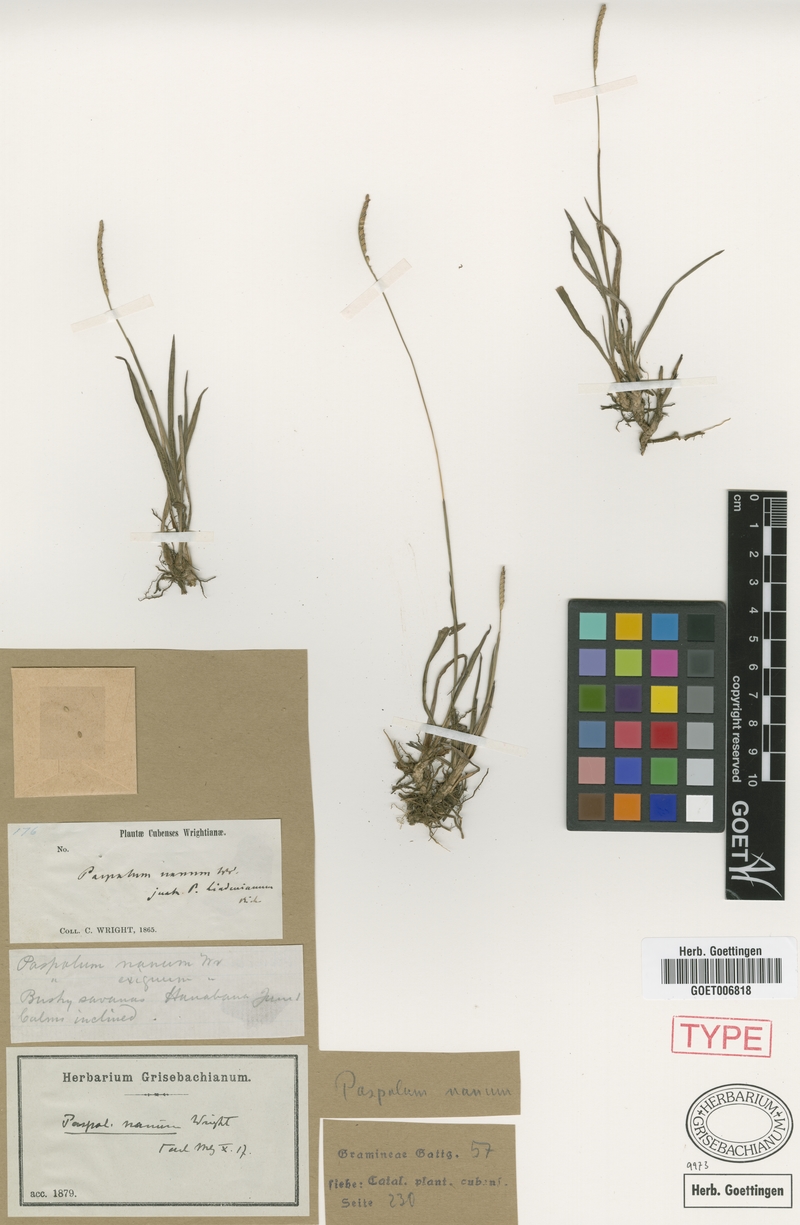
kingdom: Plantae
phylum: Tracheophyta
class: Liliopsida
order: Poales
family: Poaceae
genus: Paspalum
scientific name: Paspalum nanum
